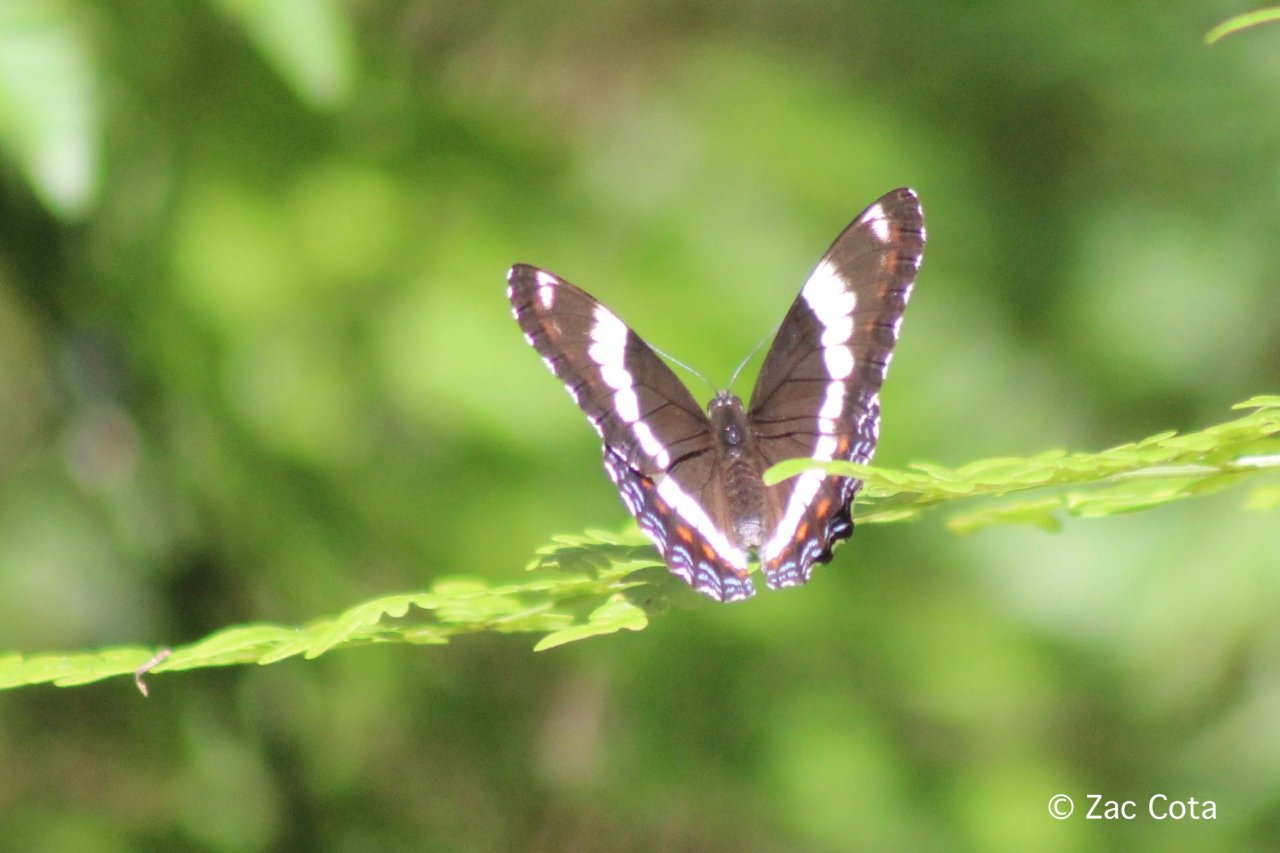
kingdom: Animalia
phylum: Arthropoda
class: Insecta
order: Lepidoptera
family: Nymphalidae
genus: Limenitis
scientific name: Limenitis arthemis
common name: Red-spotted Admiral
